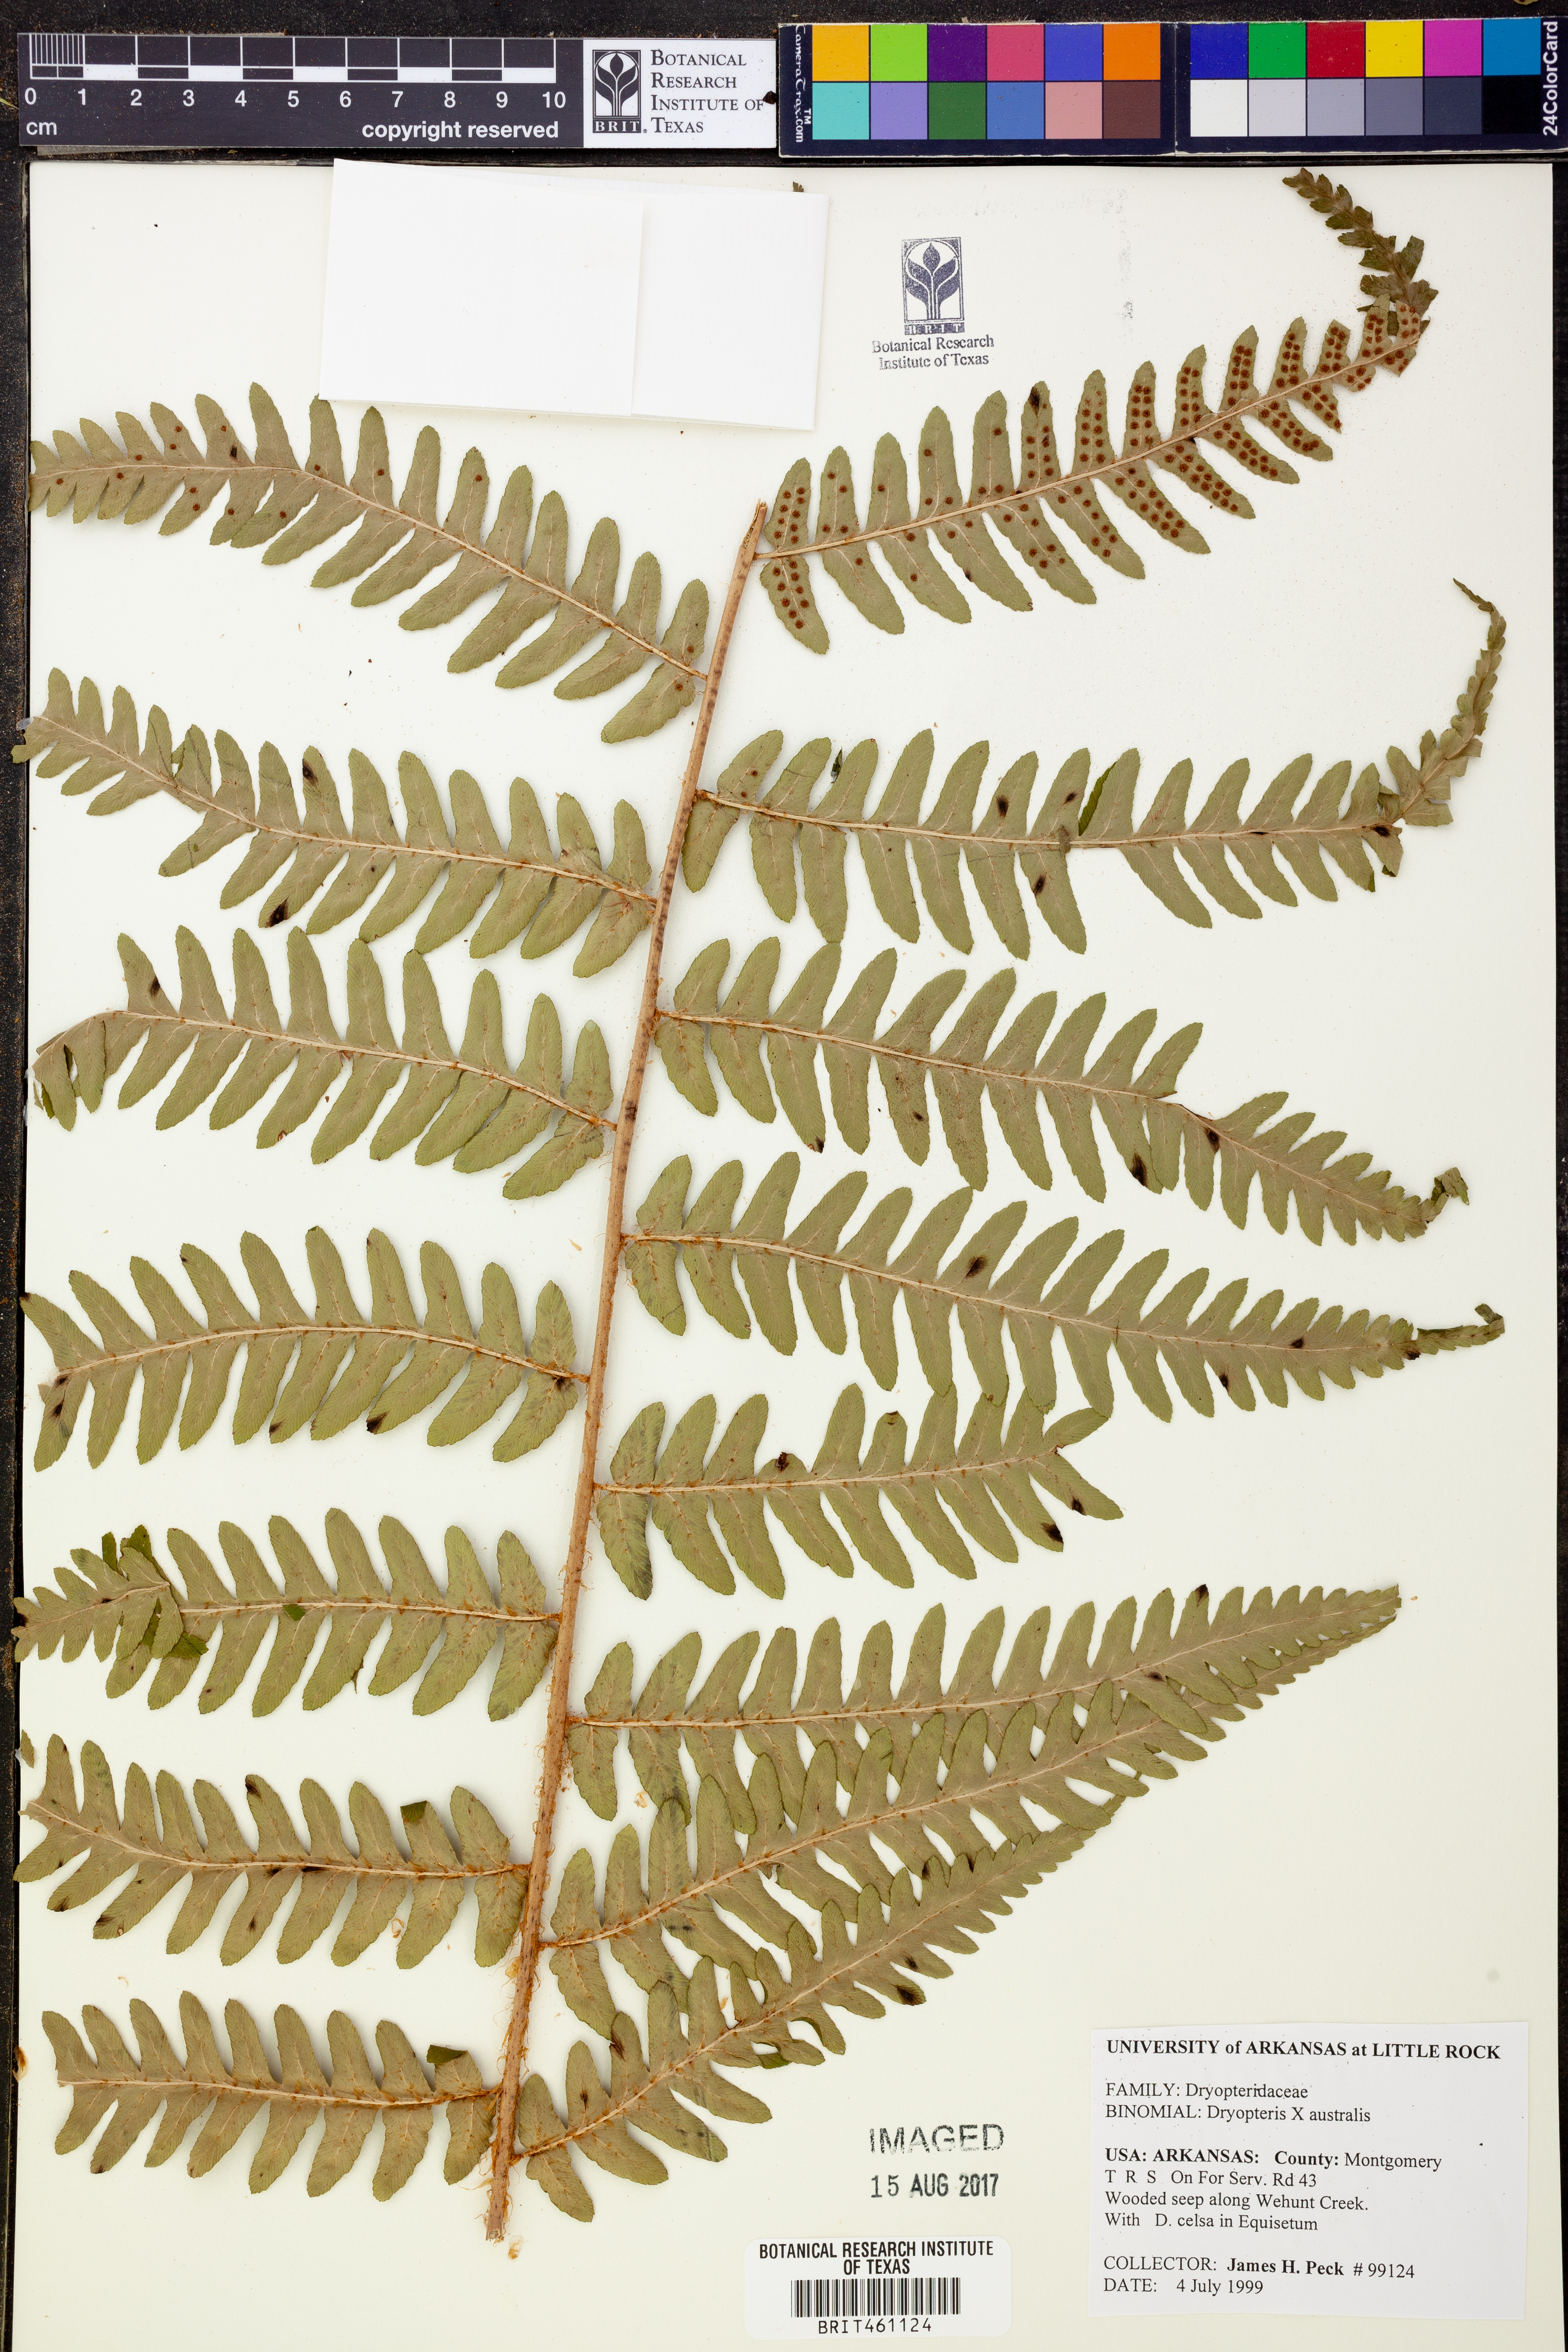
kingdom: Plantae
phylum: Tracheophyta
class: Polypodiopsida
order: Polypodiales
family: Dryopteridaceae
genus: Dryopteris
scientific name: Dryopteris
